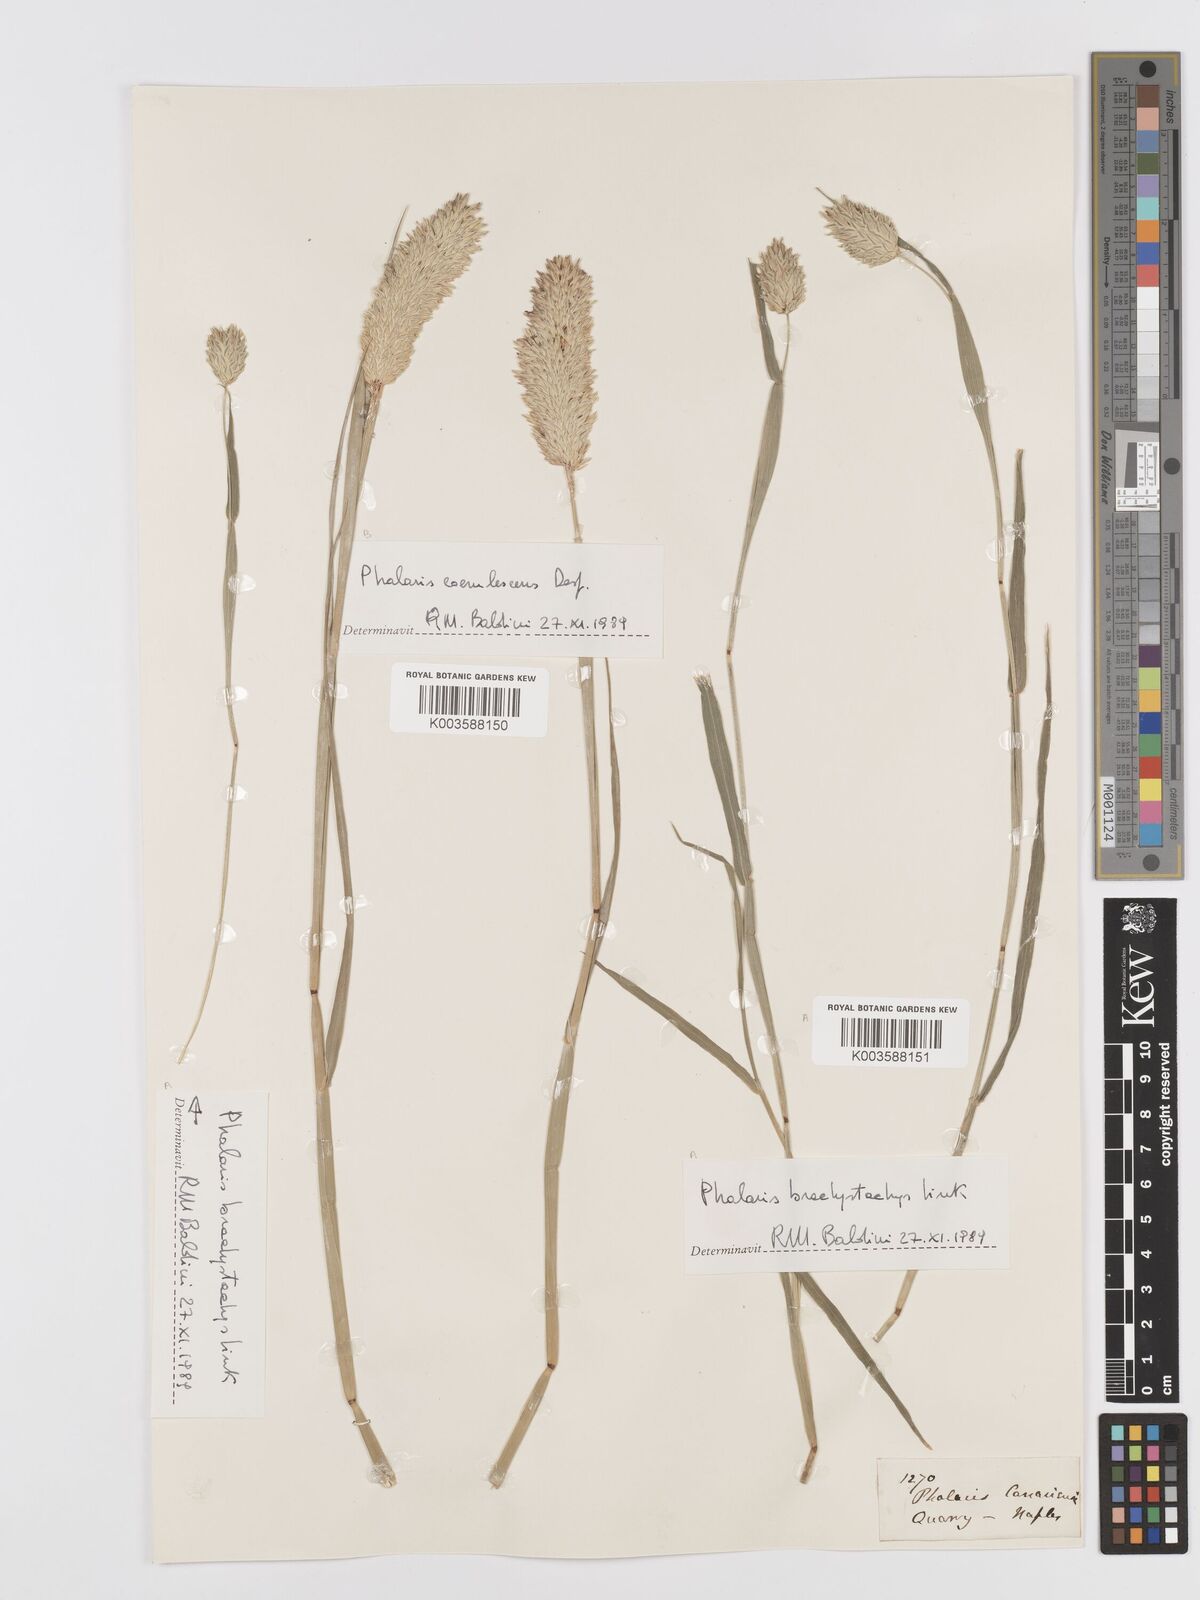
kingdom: Plantae
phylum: Tracheophyta
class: Liliopsida
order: Poales
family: Poaceae
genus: Phalaris
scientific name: Phalaris canariensis
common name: Annual canarygrass
